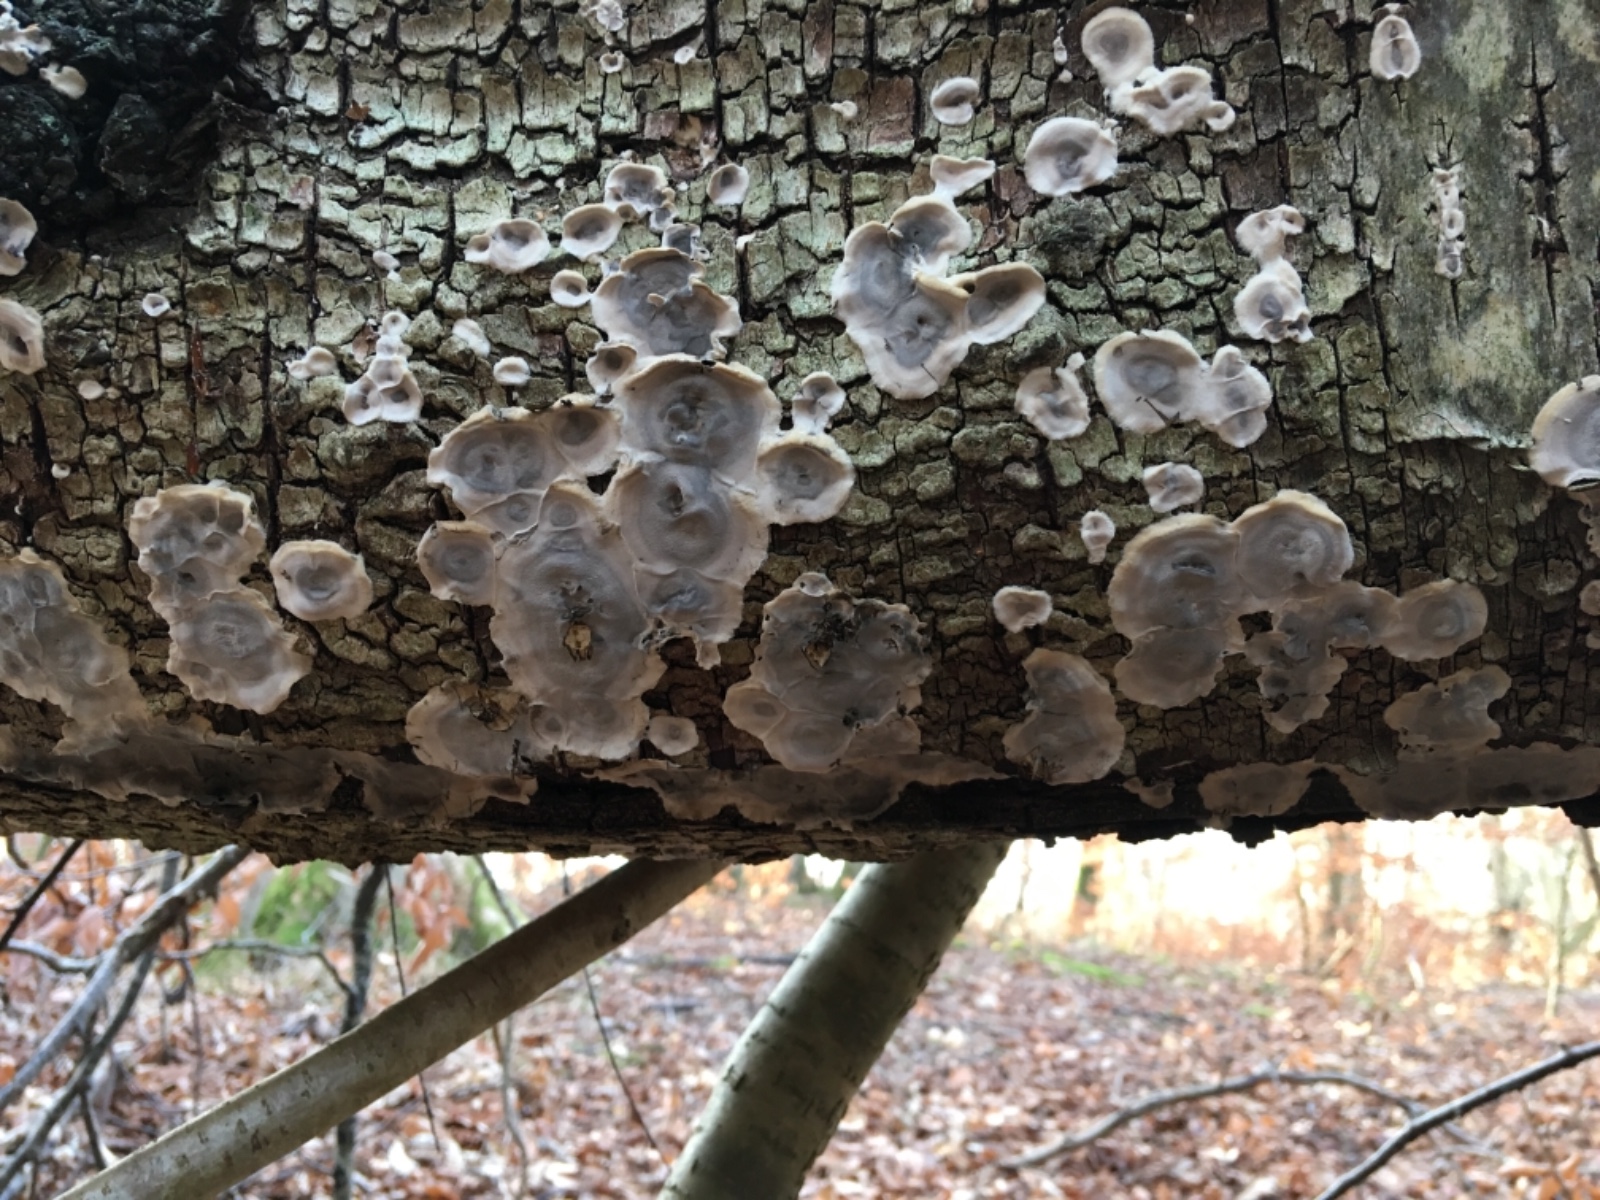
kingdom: Fungi
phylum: Basidiomycota
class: Agaricomycetes
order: Polyporales
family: Phanerochaetaceae
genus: Bjerkandera
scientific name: Bjerkandera adusta
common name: sveden sodporesvamp
